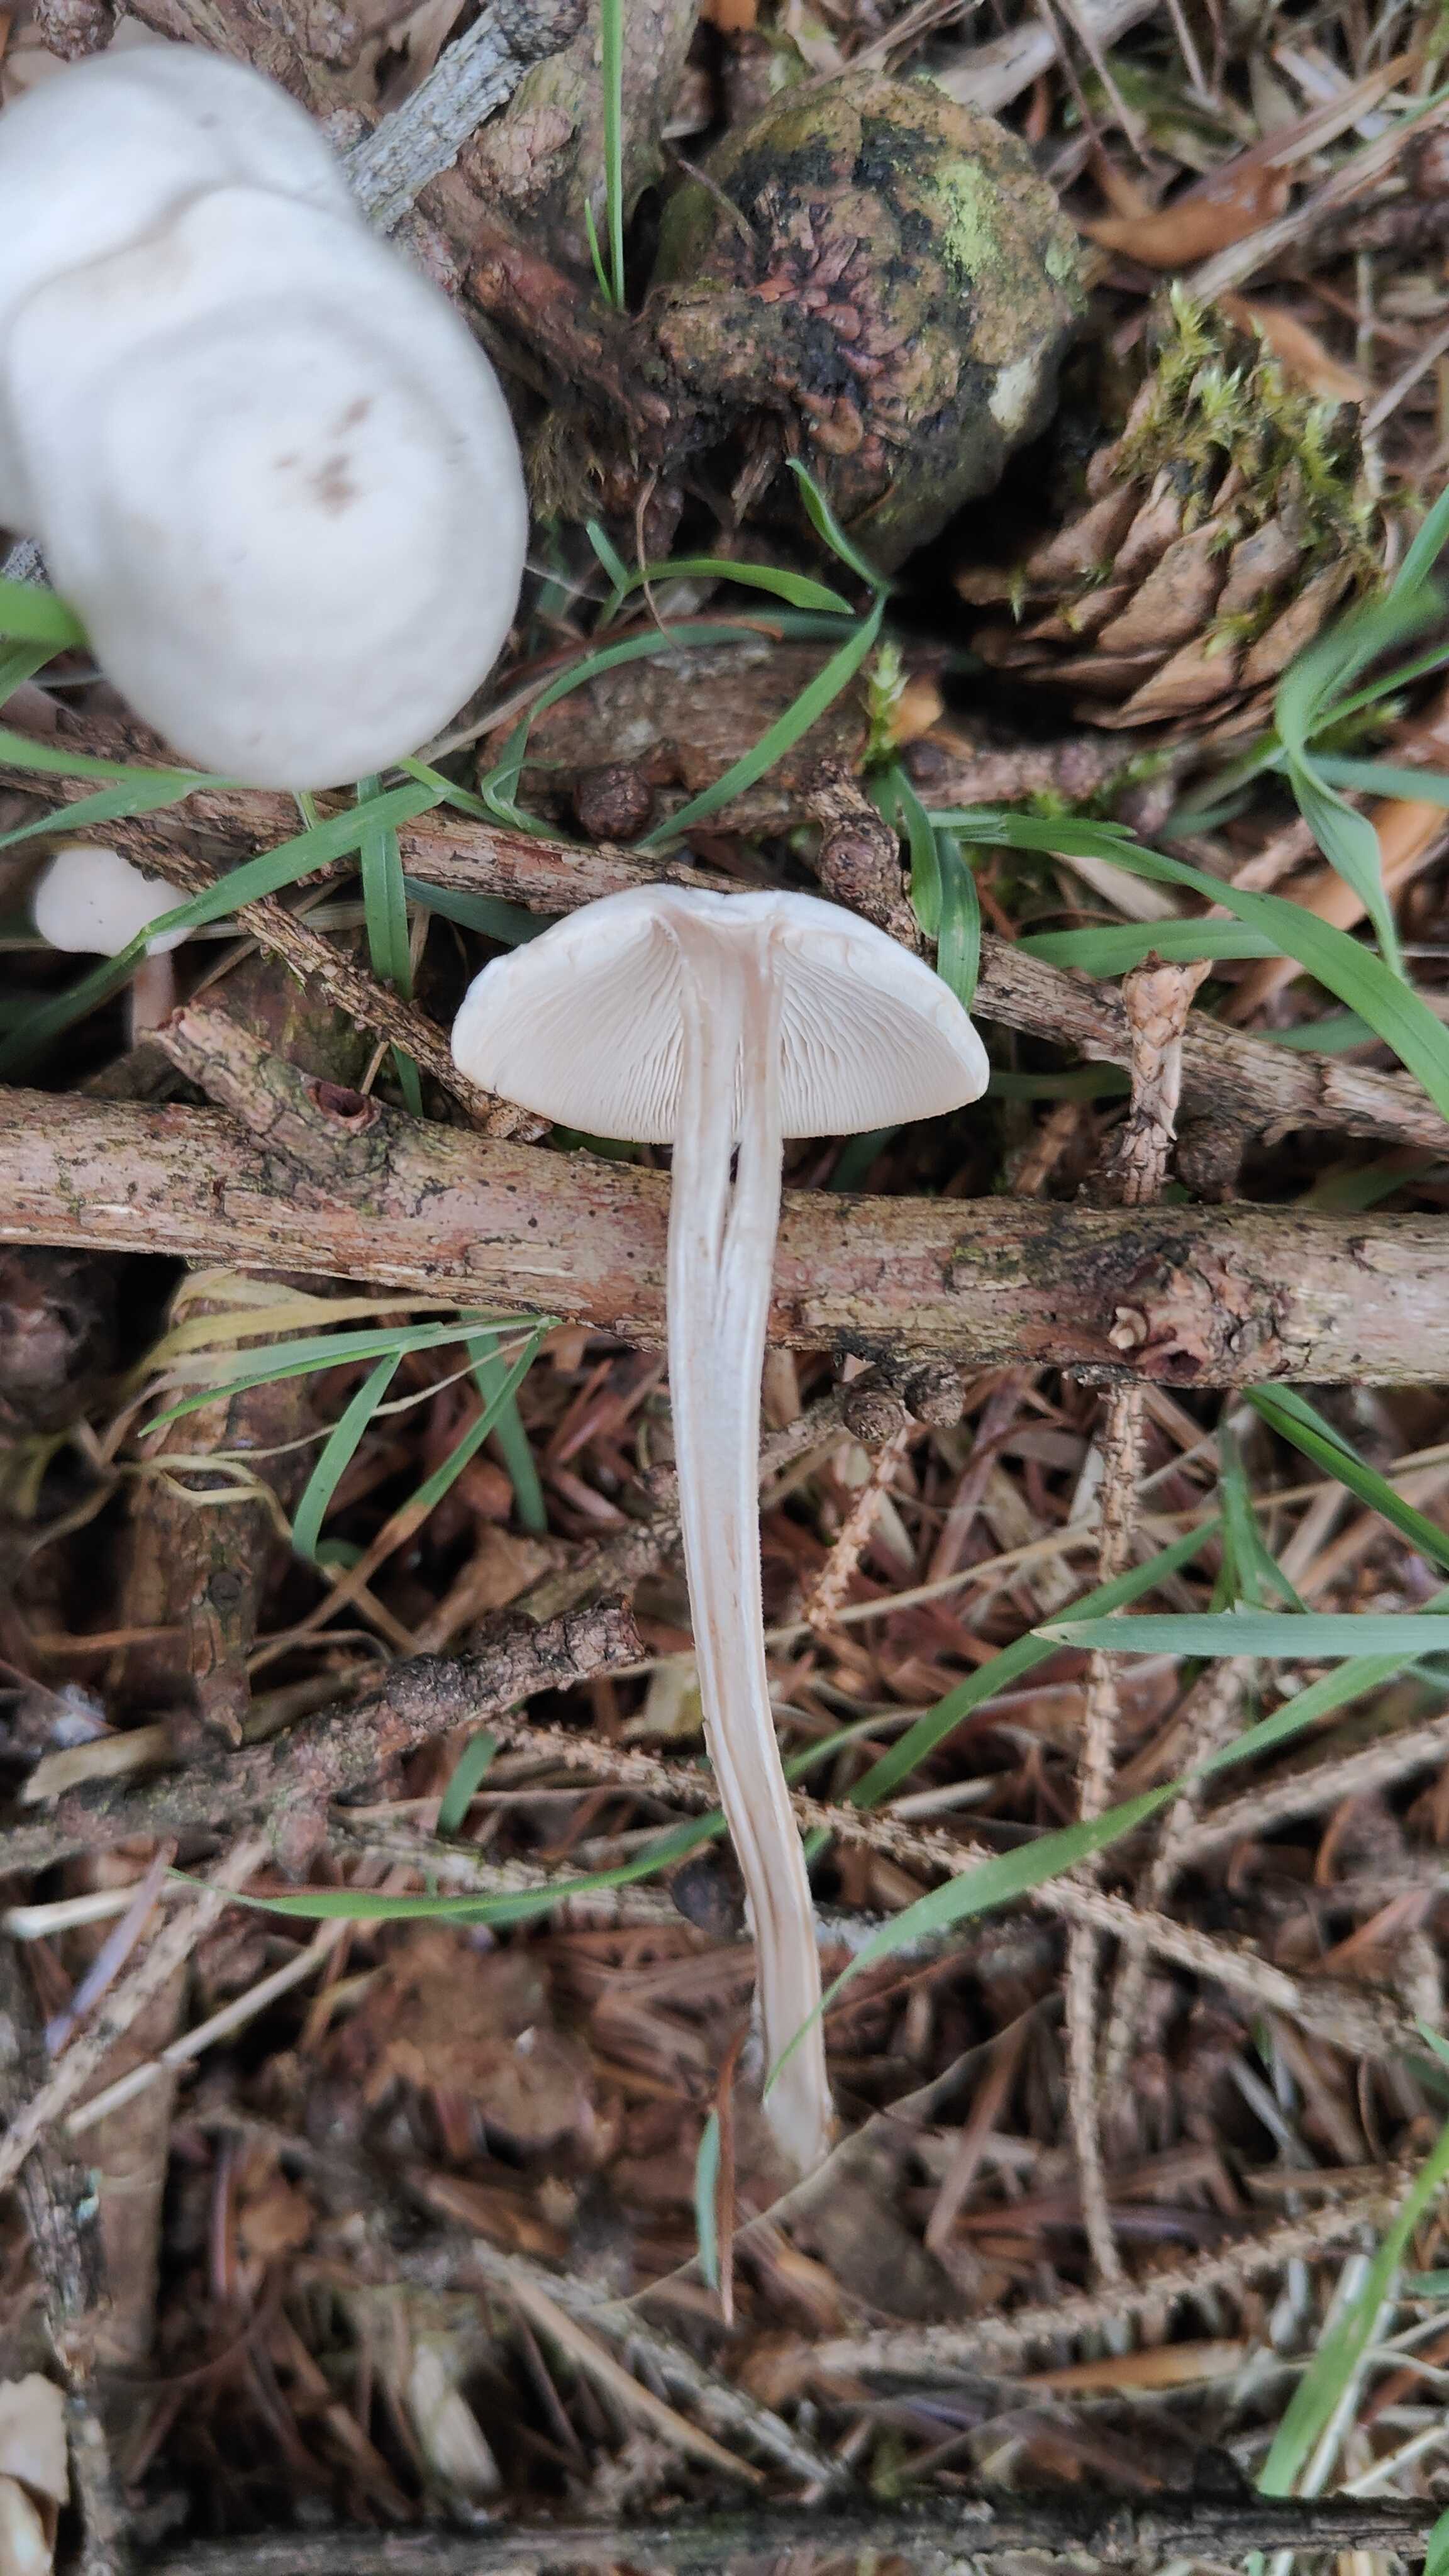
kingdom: Fungi
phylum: Basidiomycota
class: Agaricomycetes
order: Agaricales
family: Omphalotaceae
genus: Collybiopsis
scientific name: Collybiopsis confluens
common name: knippe-fladhat
